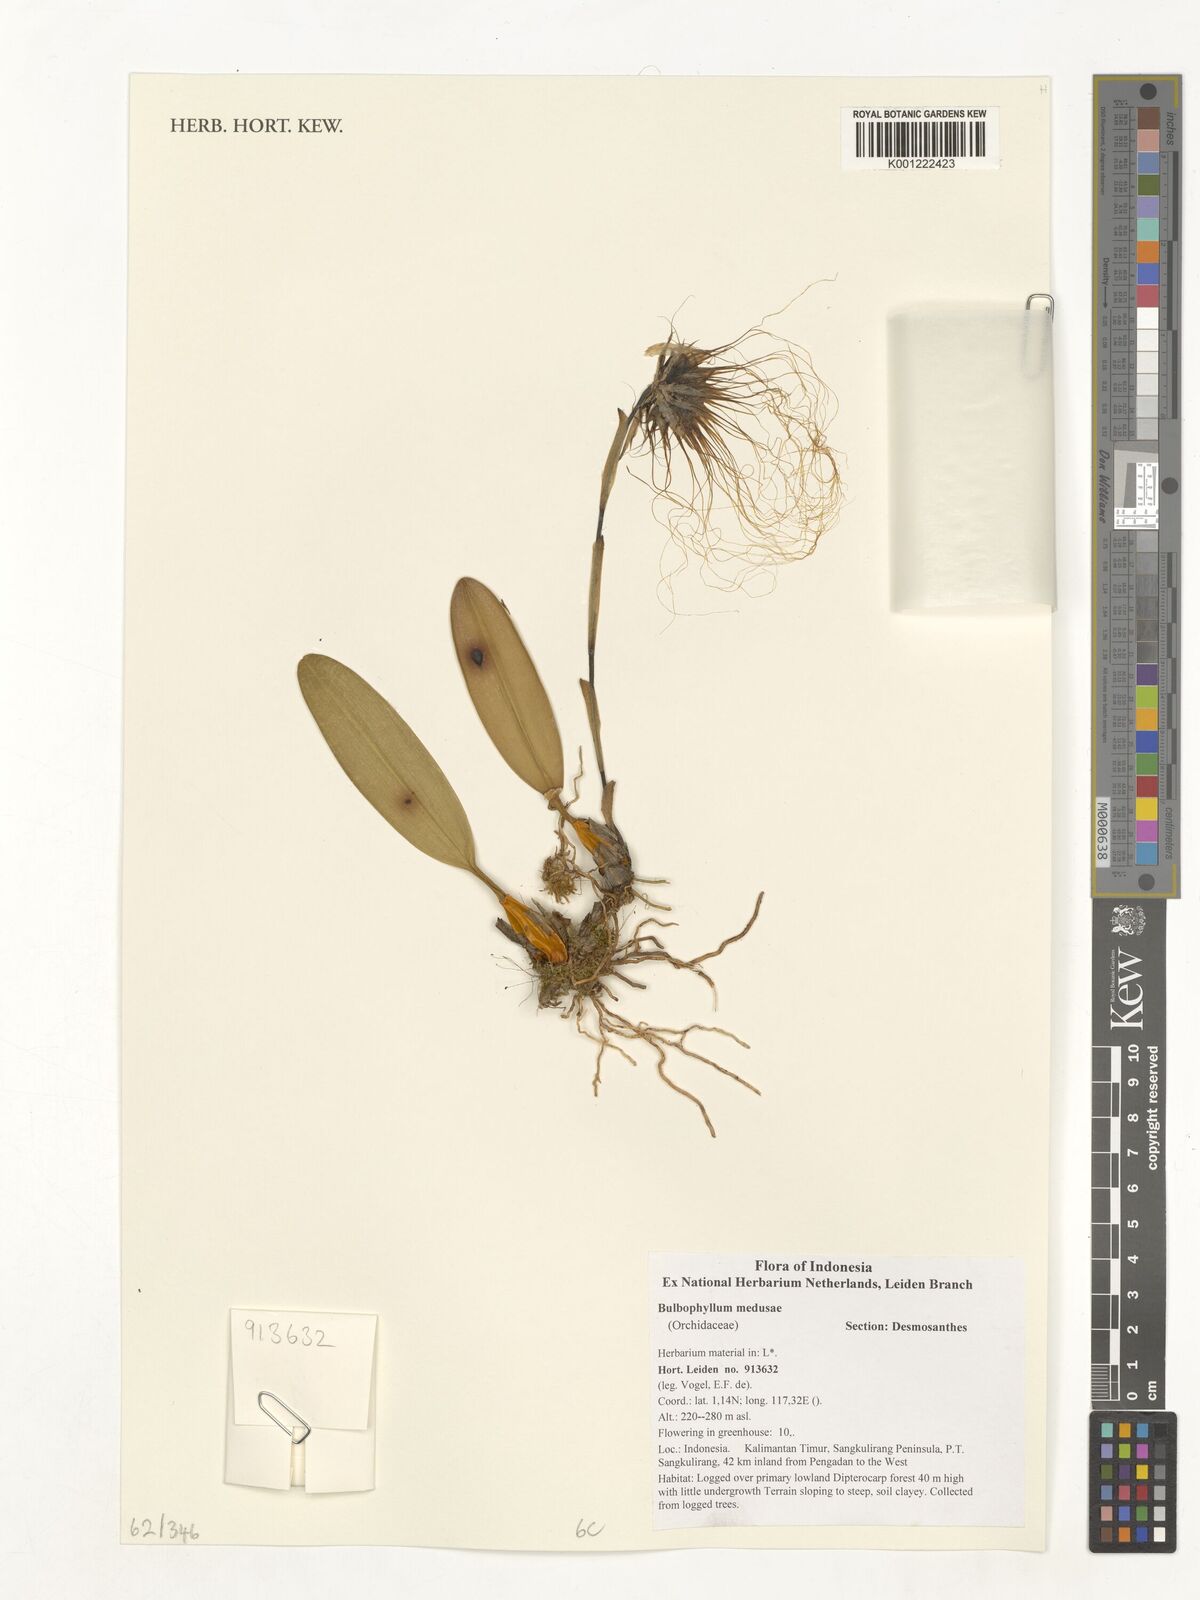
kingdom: Plantae
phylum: Tracheophyta
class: Liliopsida
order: Asparagales
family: Orchidaceae
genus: Bulbophyllum
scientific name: Bulbophyllum medusae
